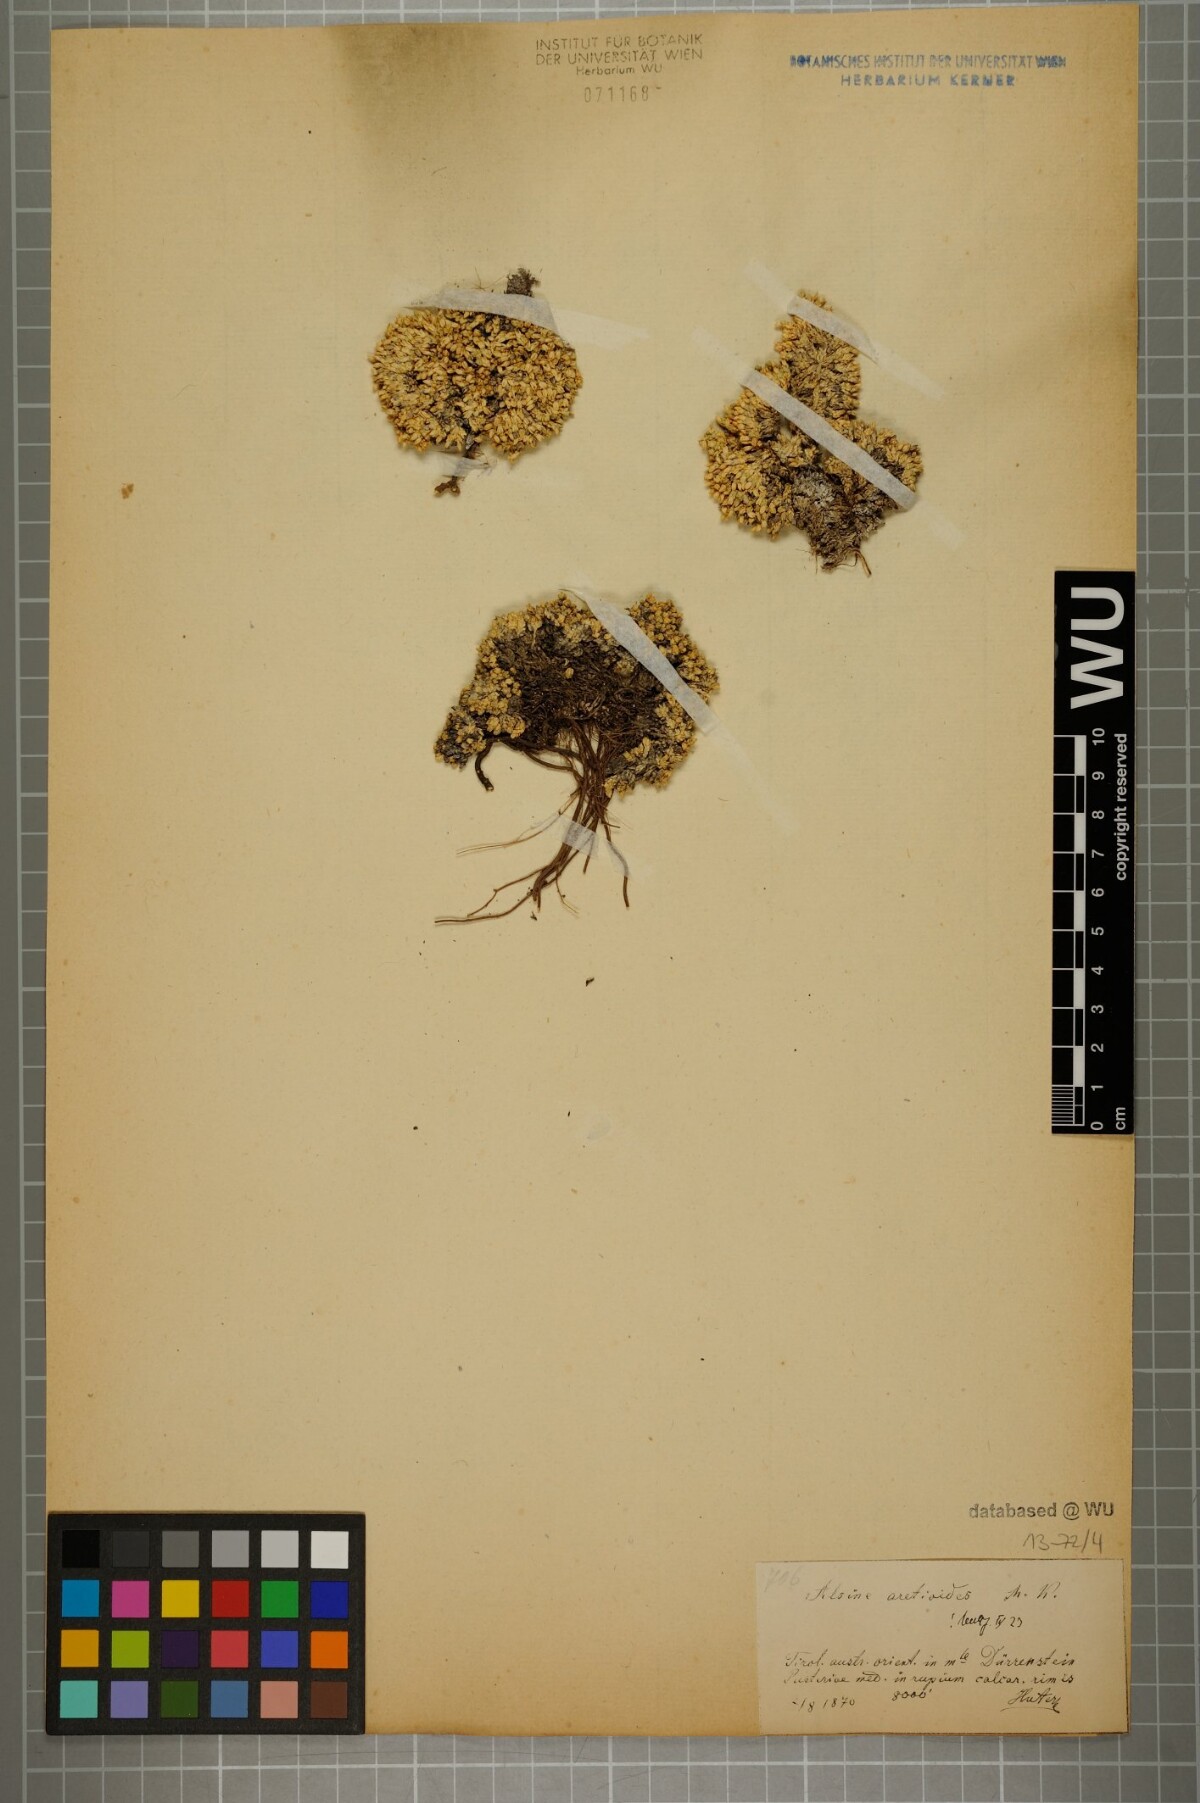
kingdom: Plantae
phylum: Tracheophyta
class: Magnoliopsida
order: Caryophyllales
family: Caryophyllaceae
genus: Facchinia
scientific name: Facchinia cherlerioides
